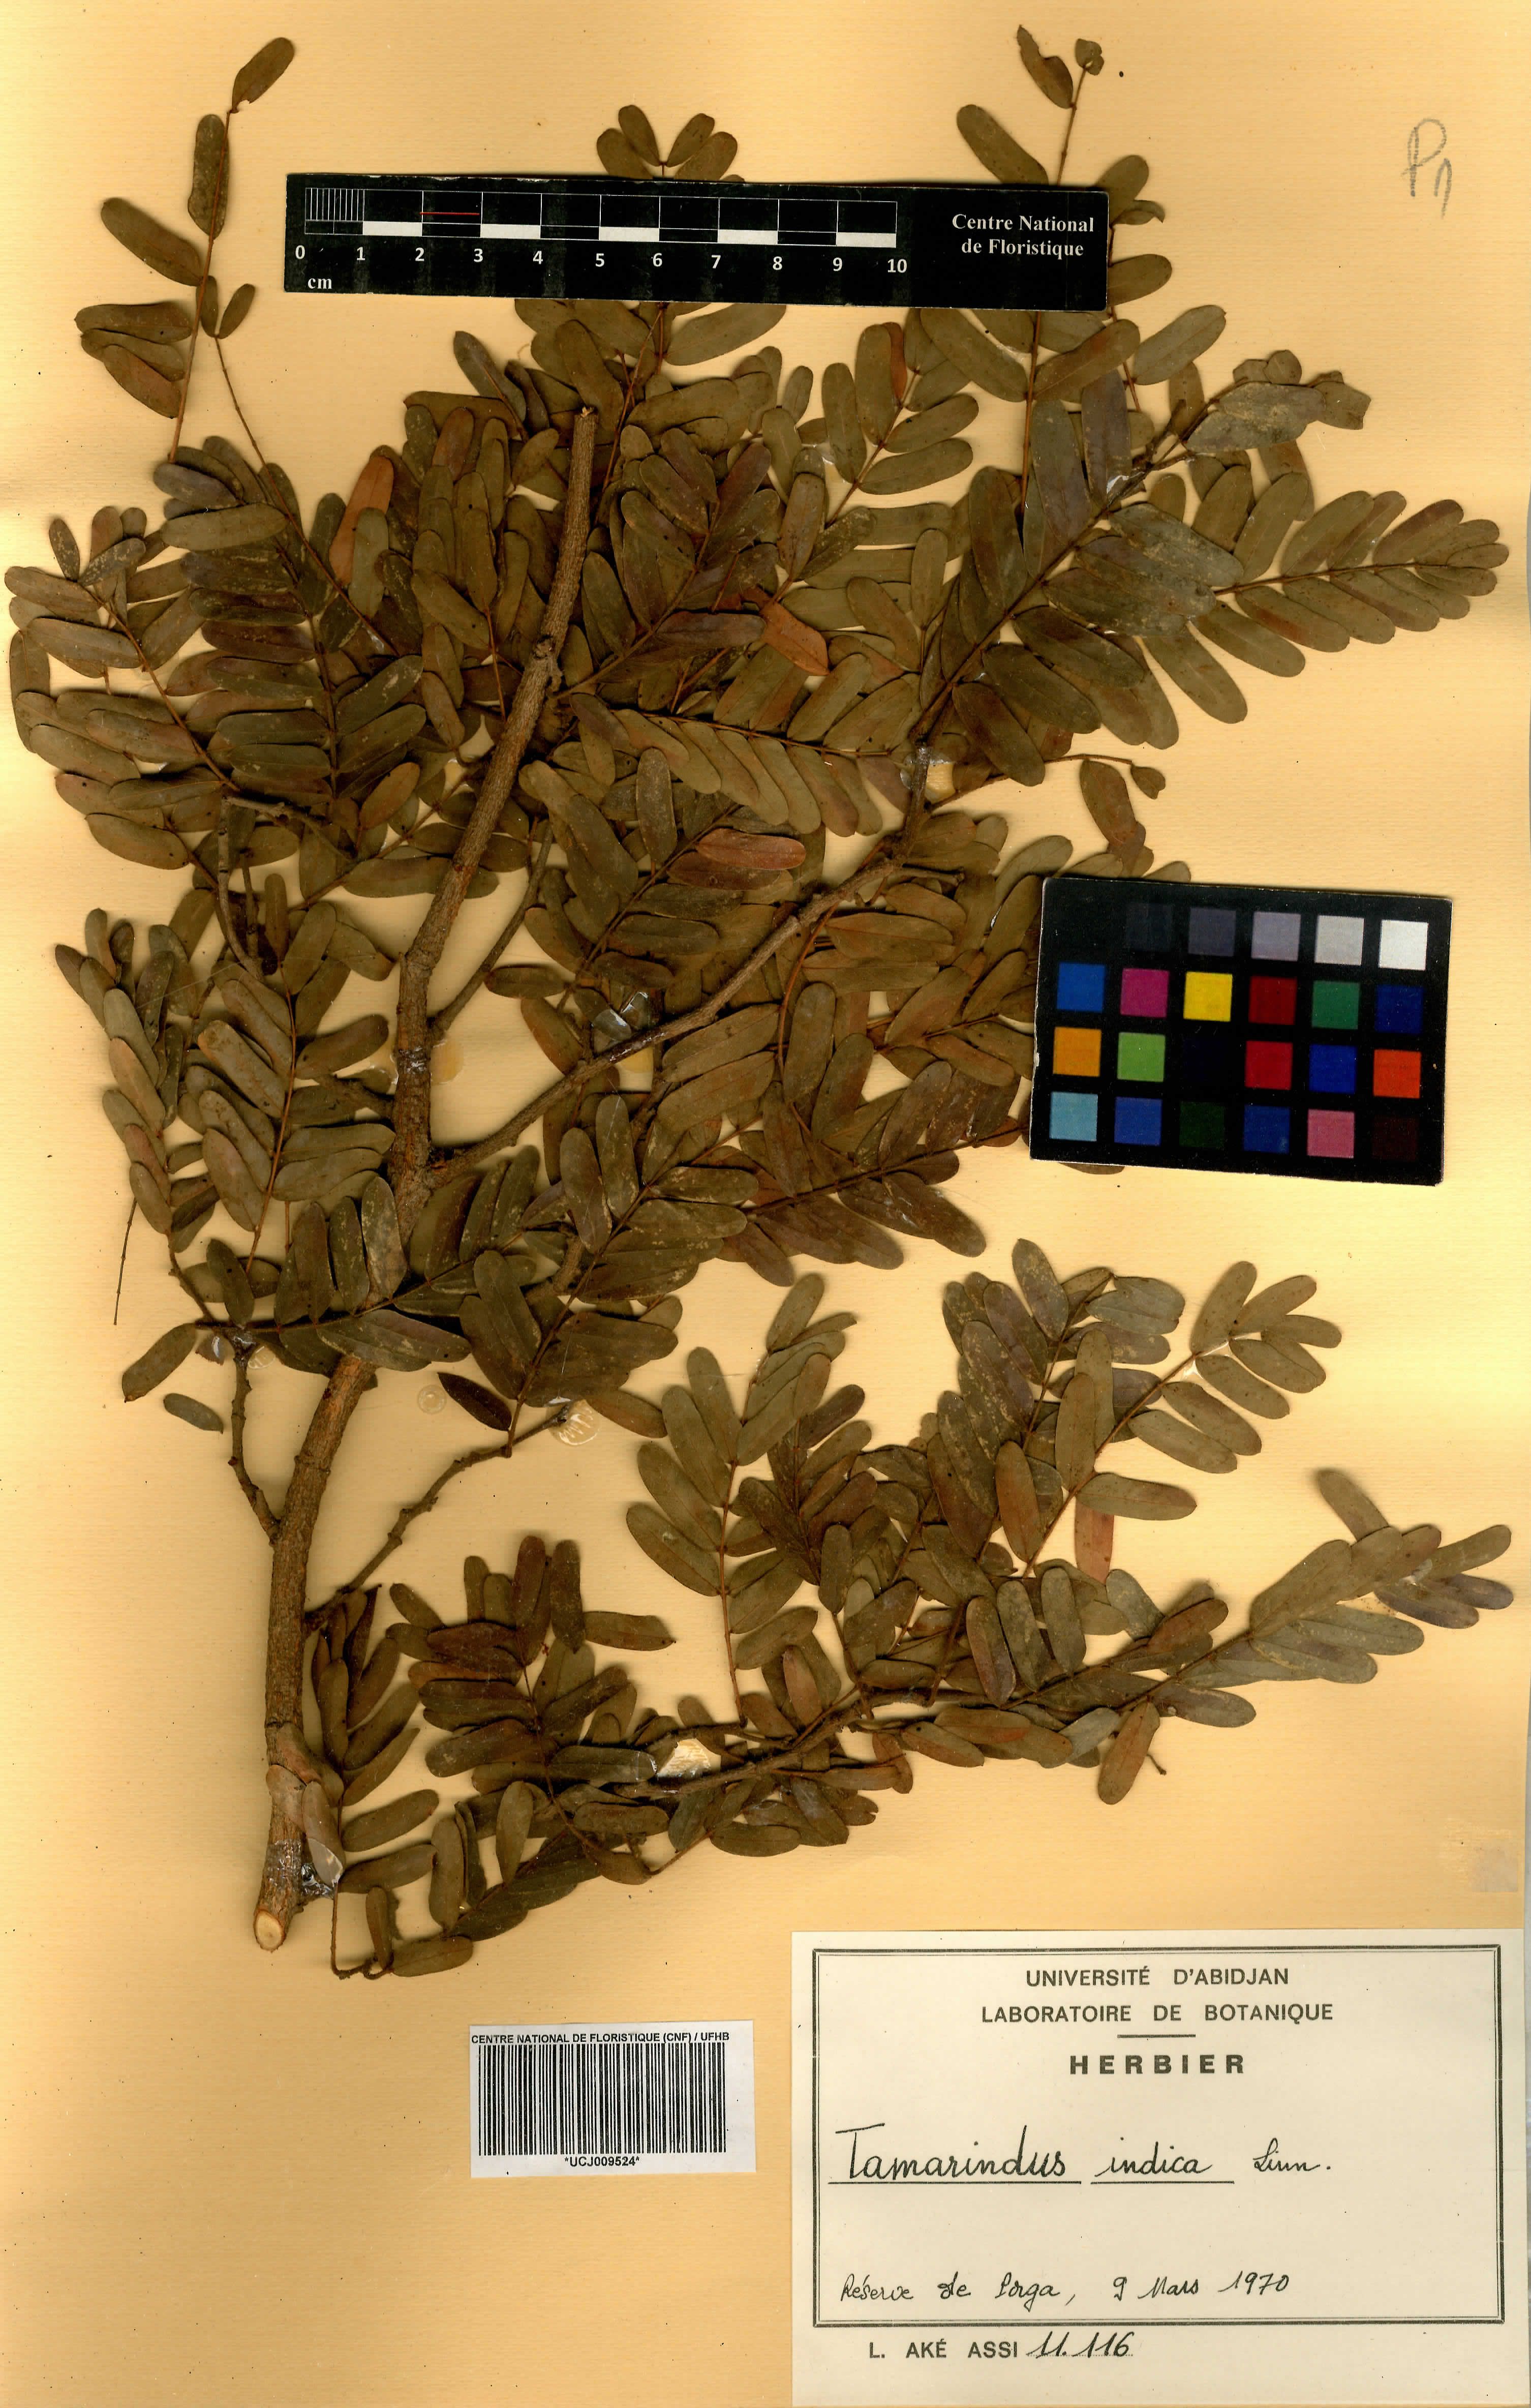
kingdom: Plantae
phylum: Tracheophyta
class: Magnoliopsida
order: Fabales
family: Fabaceae
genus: Tamarindus
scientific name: Tamarindus indica
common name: Tamarind
